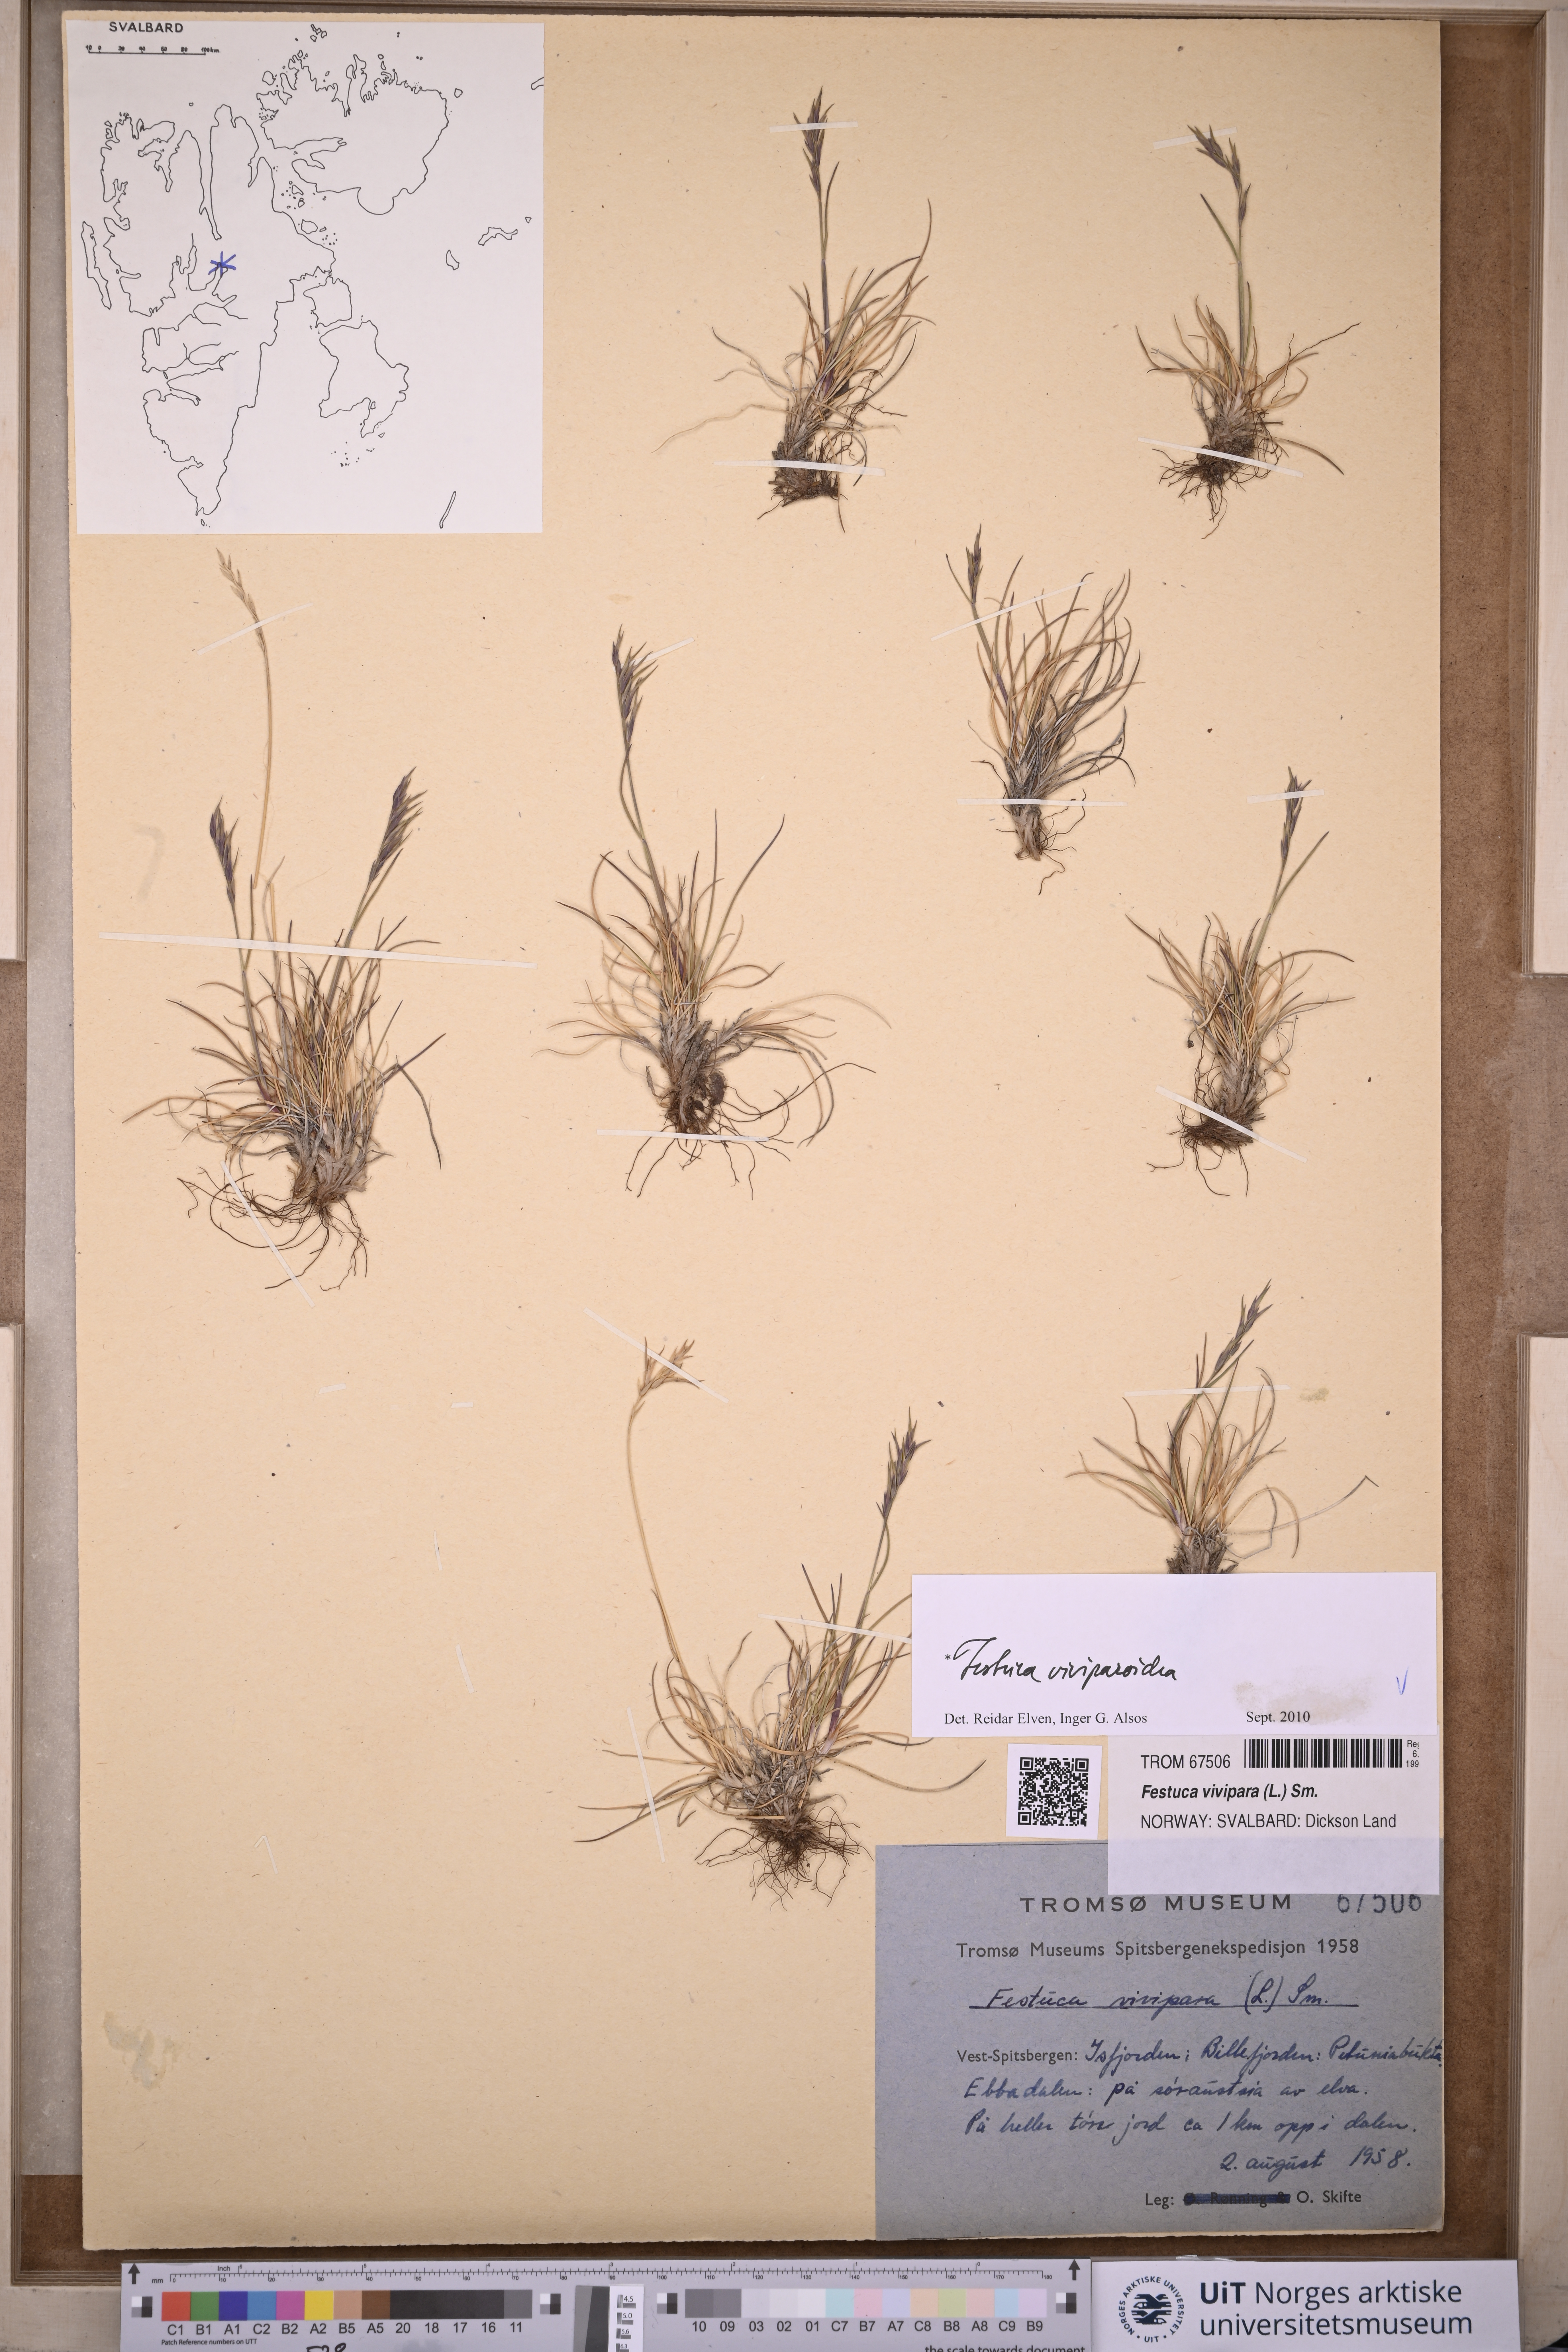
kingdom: Plantae
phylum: Tracheophyta
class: Liliopsida
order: Poales
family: Poaceae
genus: Festuca
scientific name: Festuca viviparoidea
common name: Northern fescue
